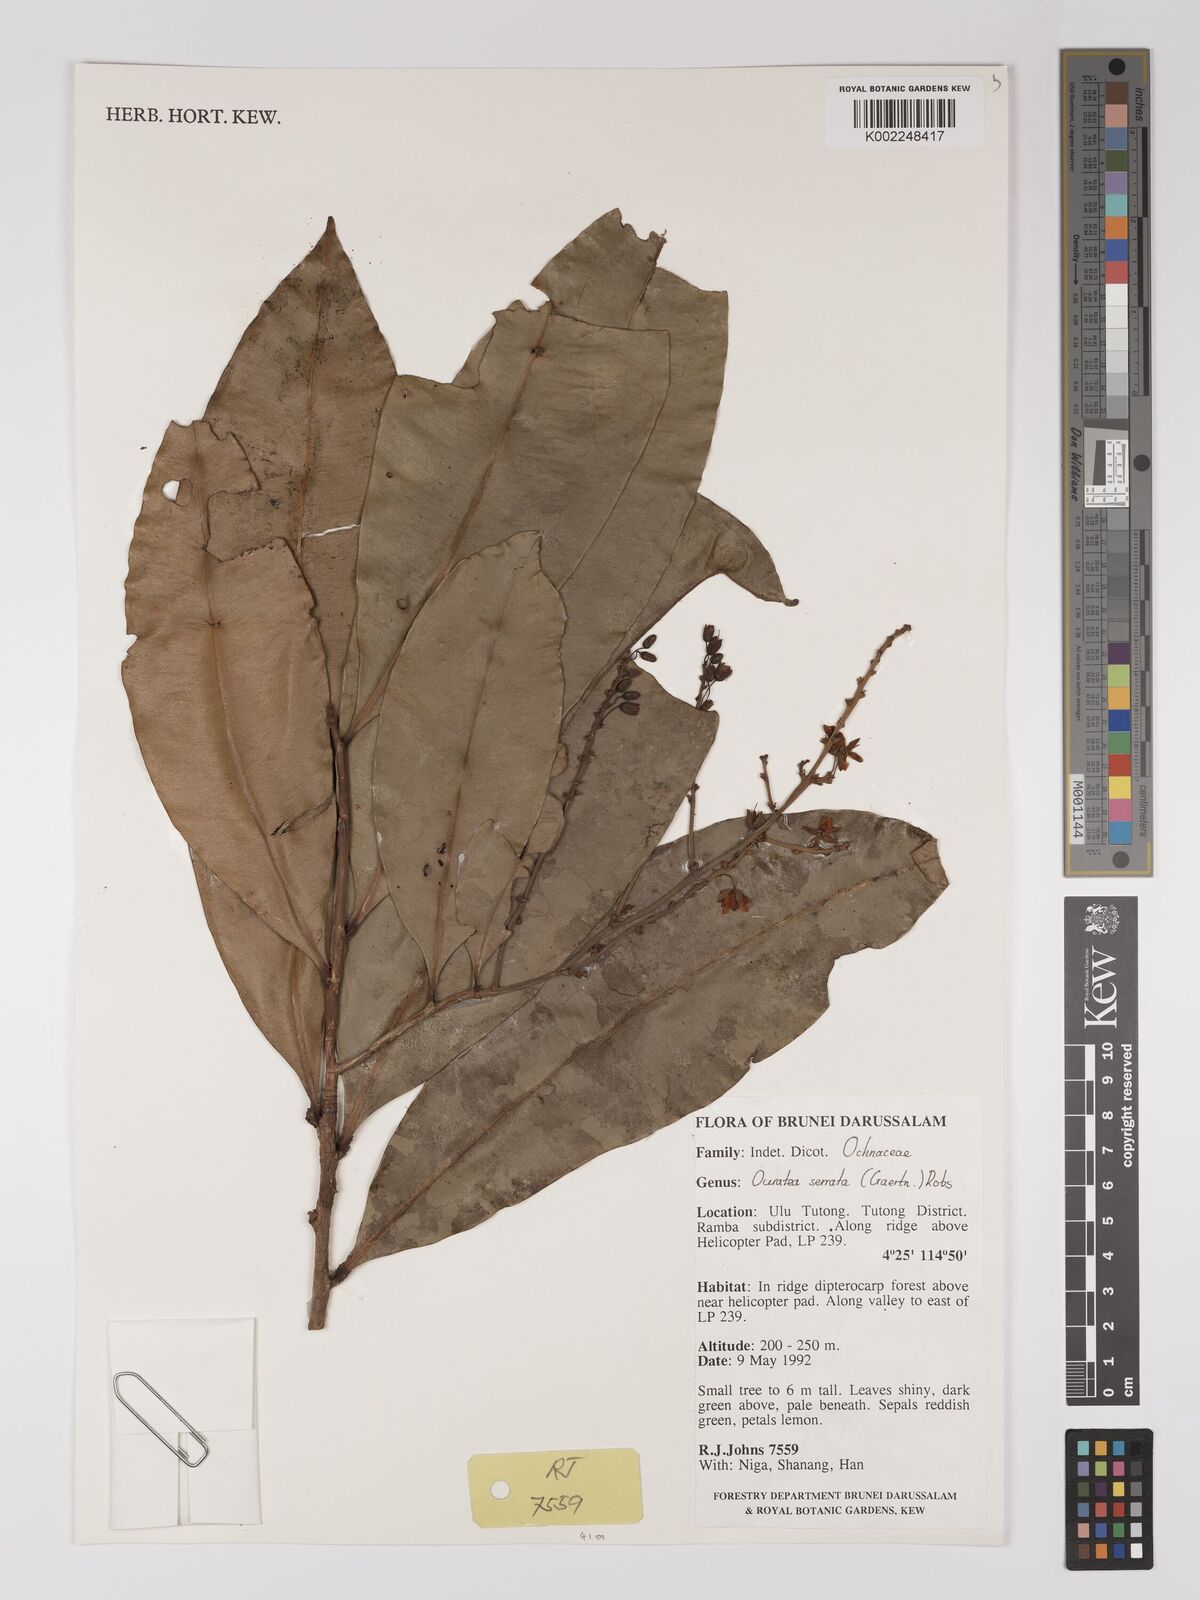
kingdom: Plantae
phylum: Tracheophyta
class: Magnoliopsida
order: Malpighiales
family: Ochnaceae
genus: Gomphia
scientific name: Gomphia serrata
